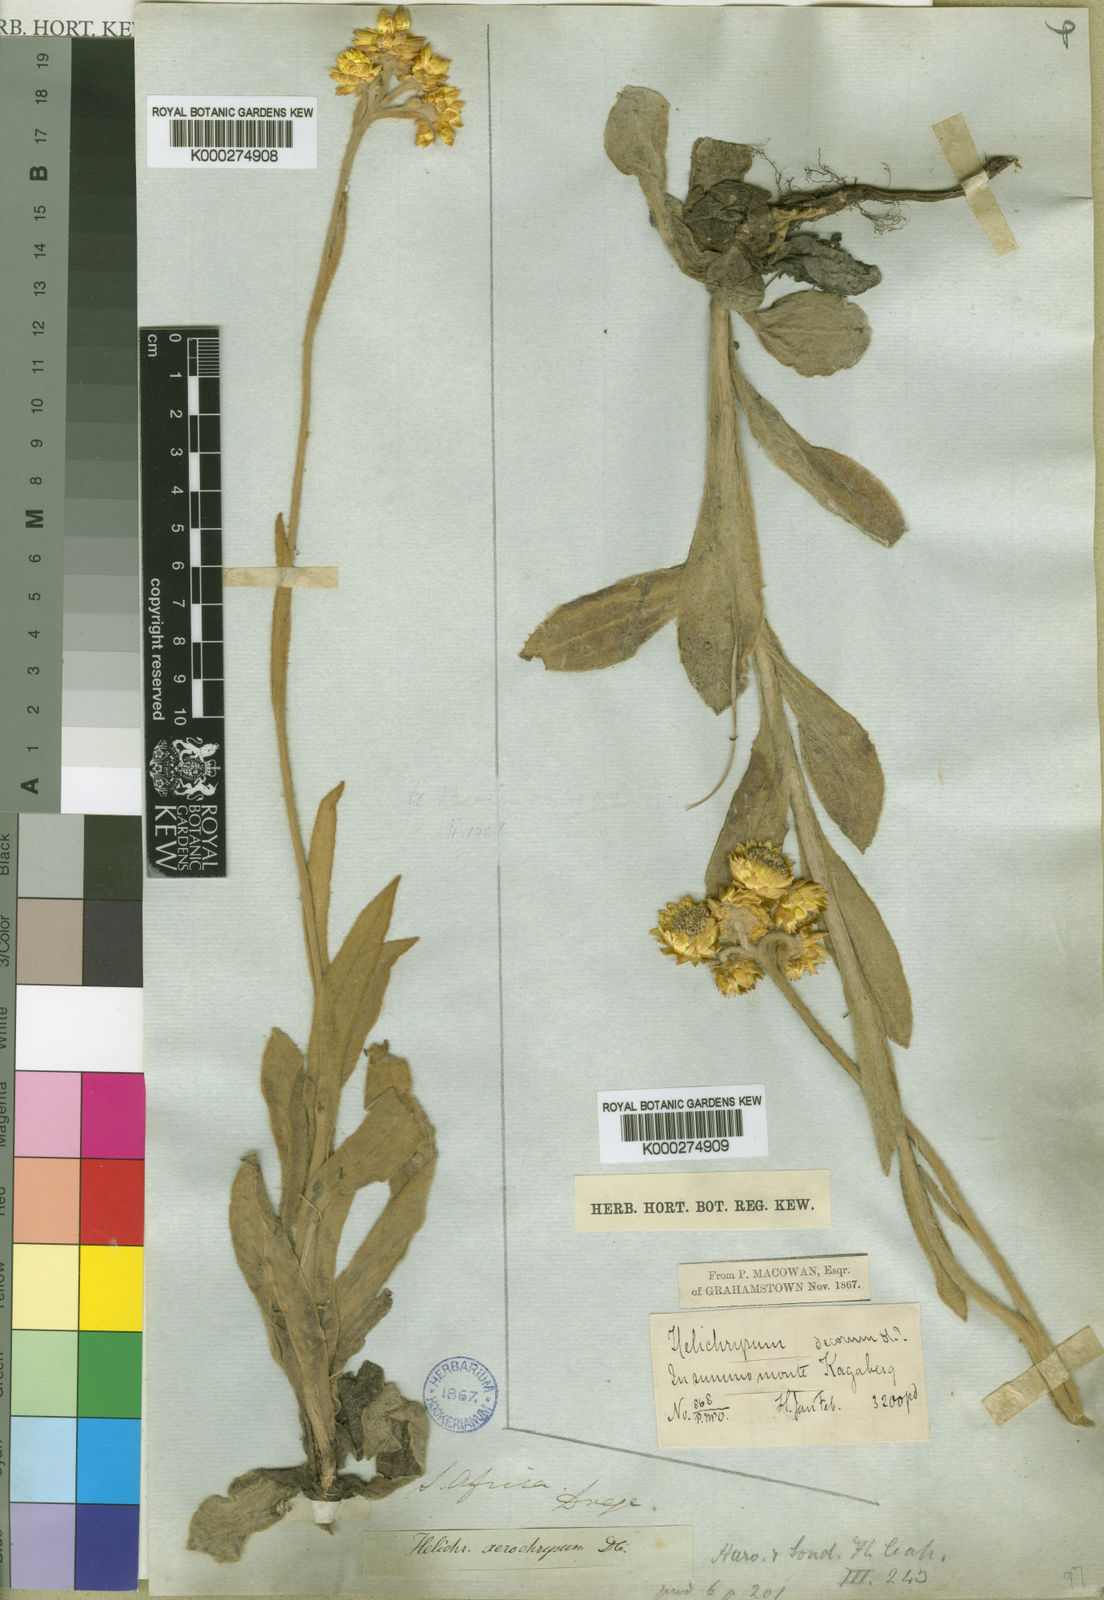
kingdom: Plantae
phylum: Tracheophyta
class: Magnoliopsida
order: Asterales
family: Asteraceae
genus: Helichrysum
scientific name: Helichrysum xerochrysum
